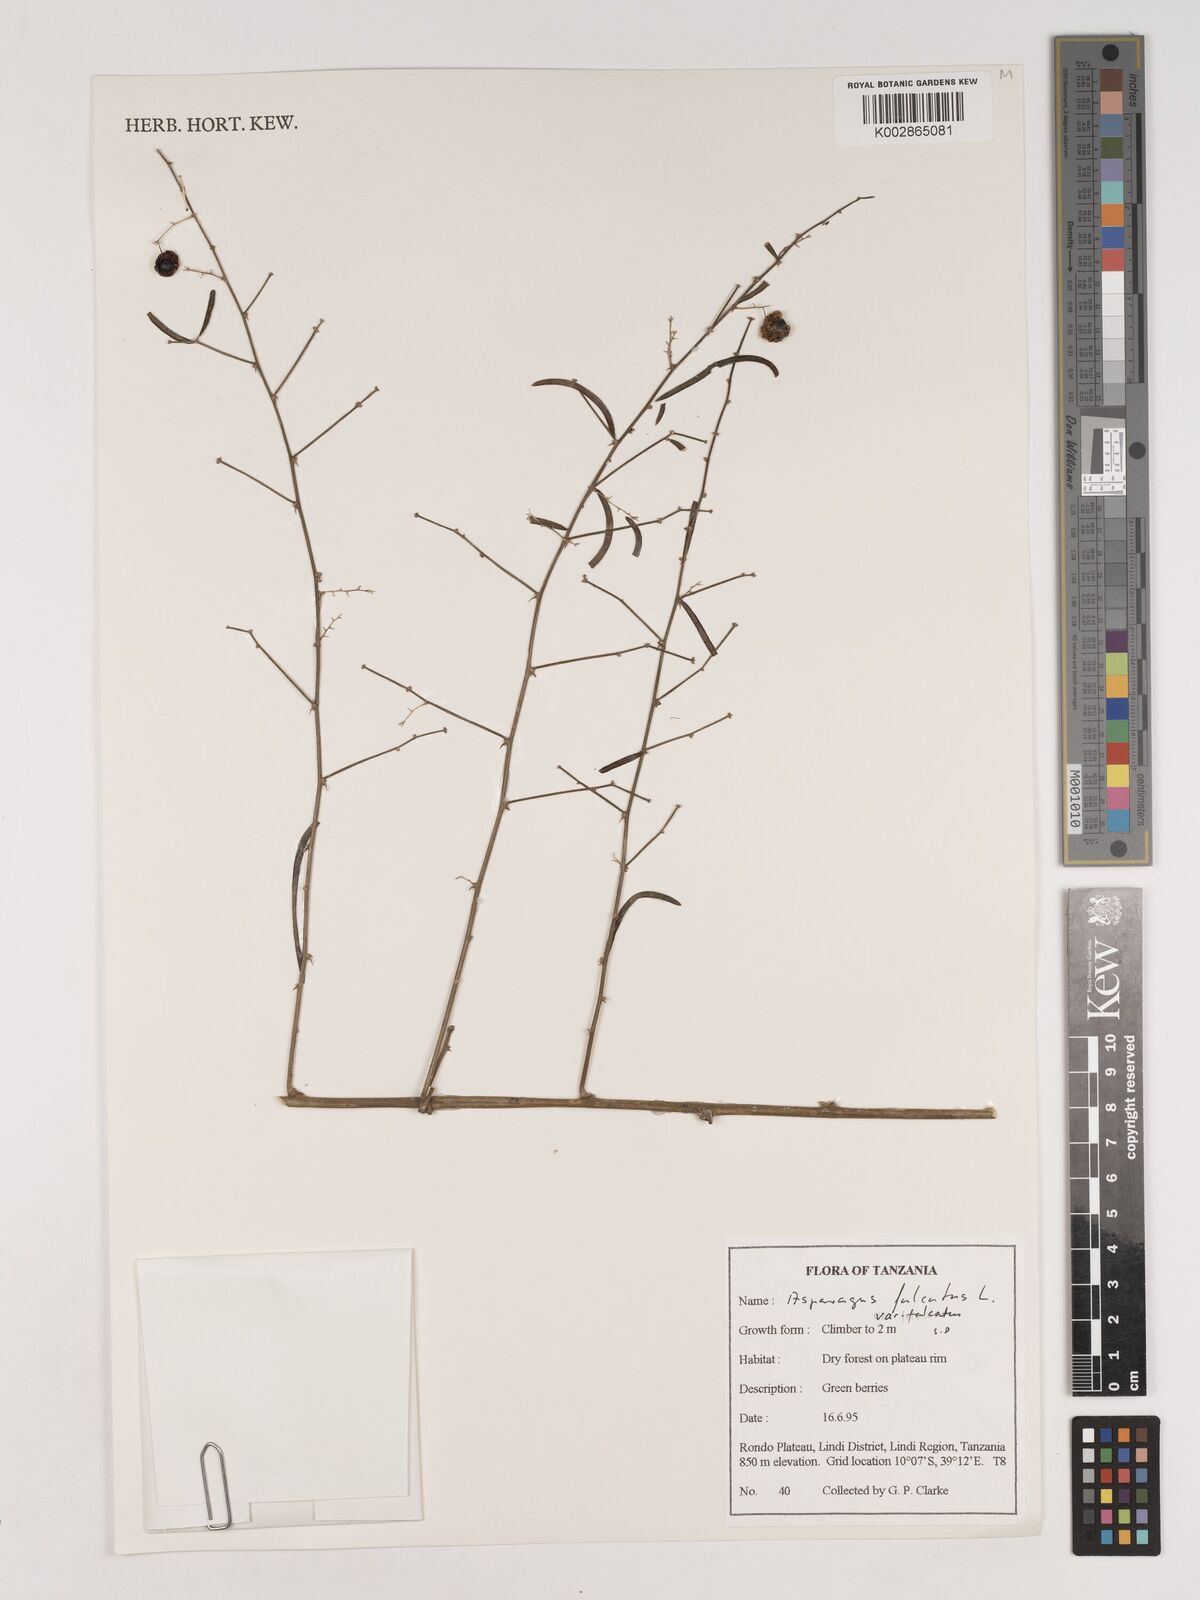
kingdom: Plantae
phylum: Tracheophyta
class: Liliopsida
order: Asparagales
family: Asparagaceae
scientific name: Asparagaceae
